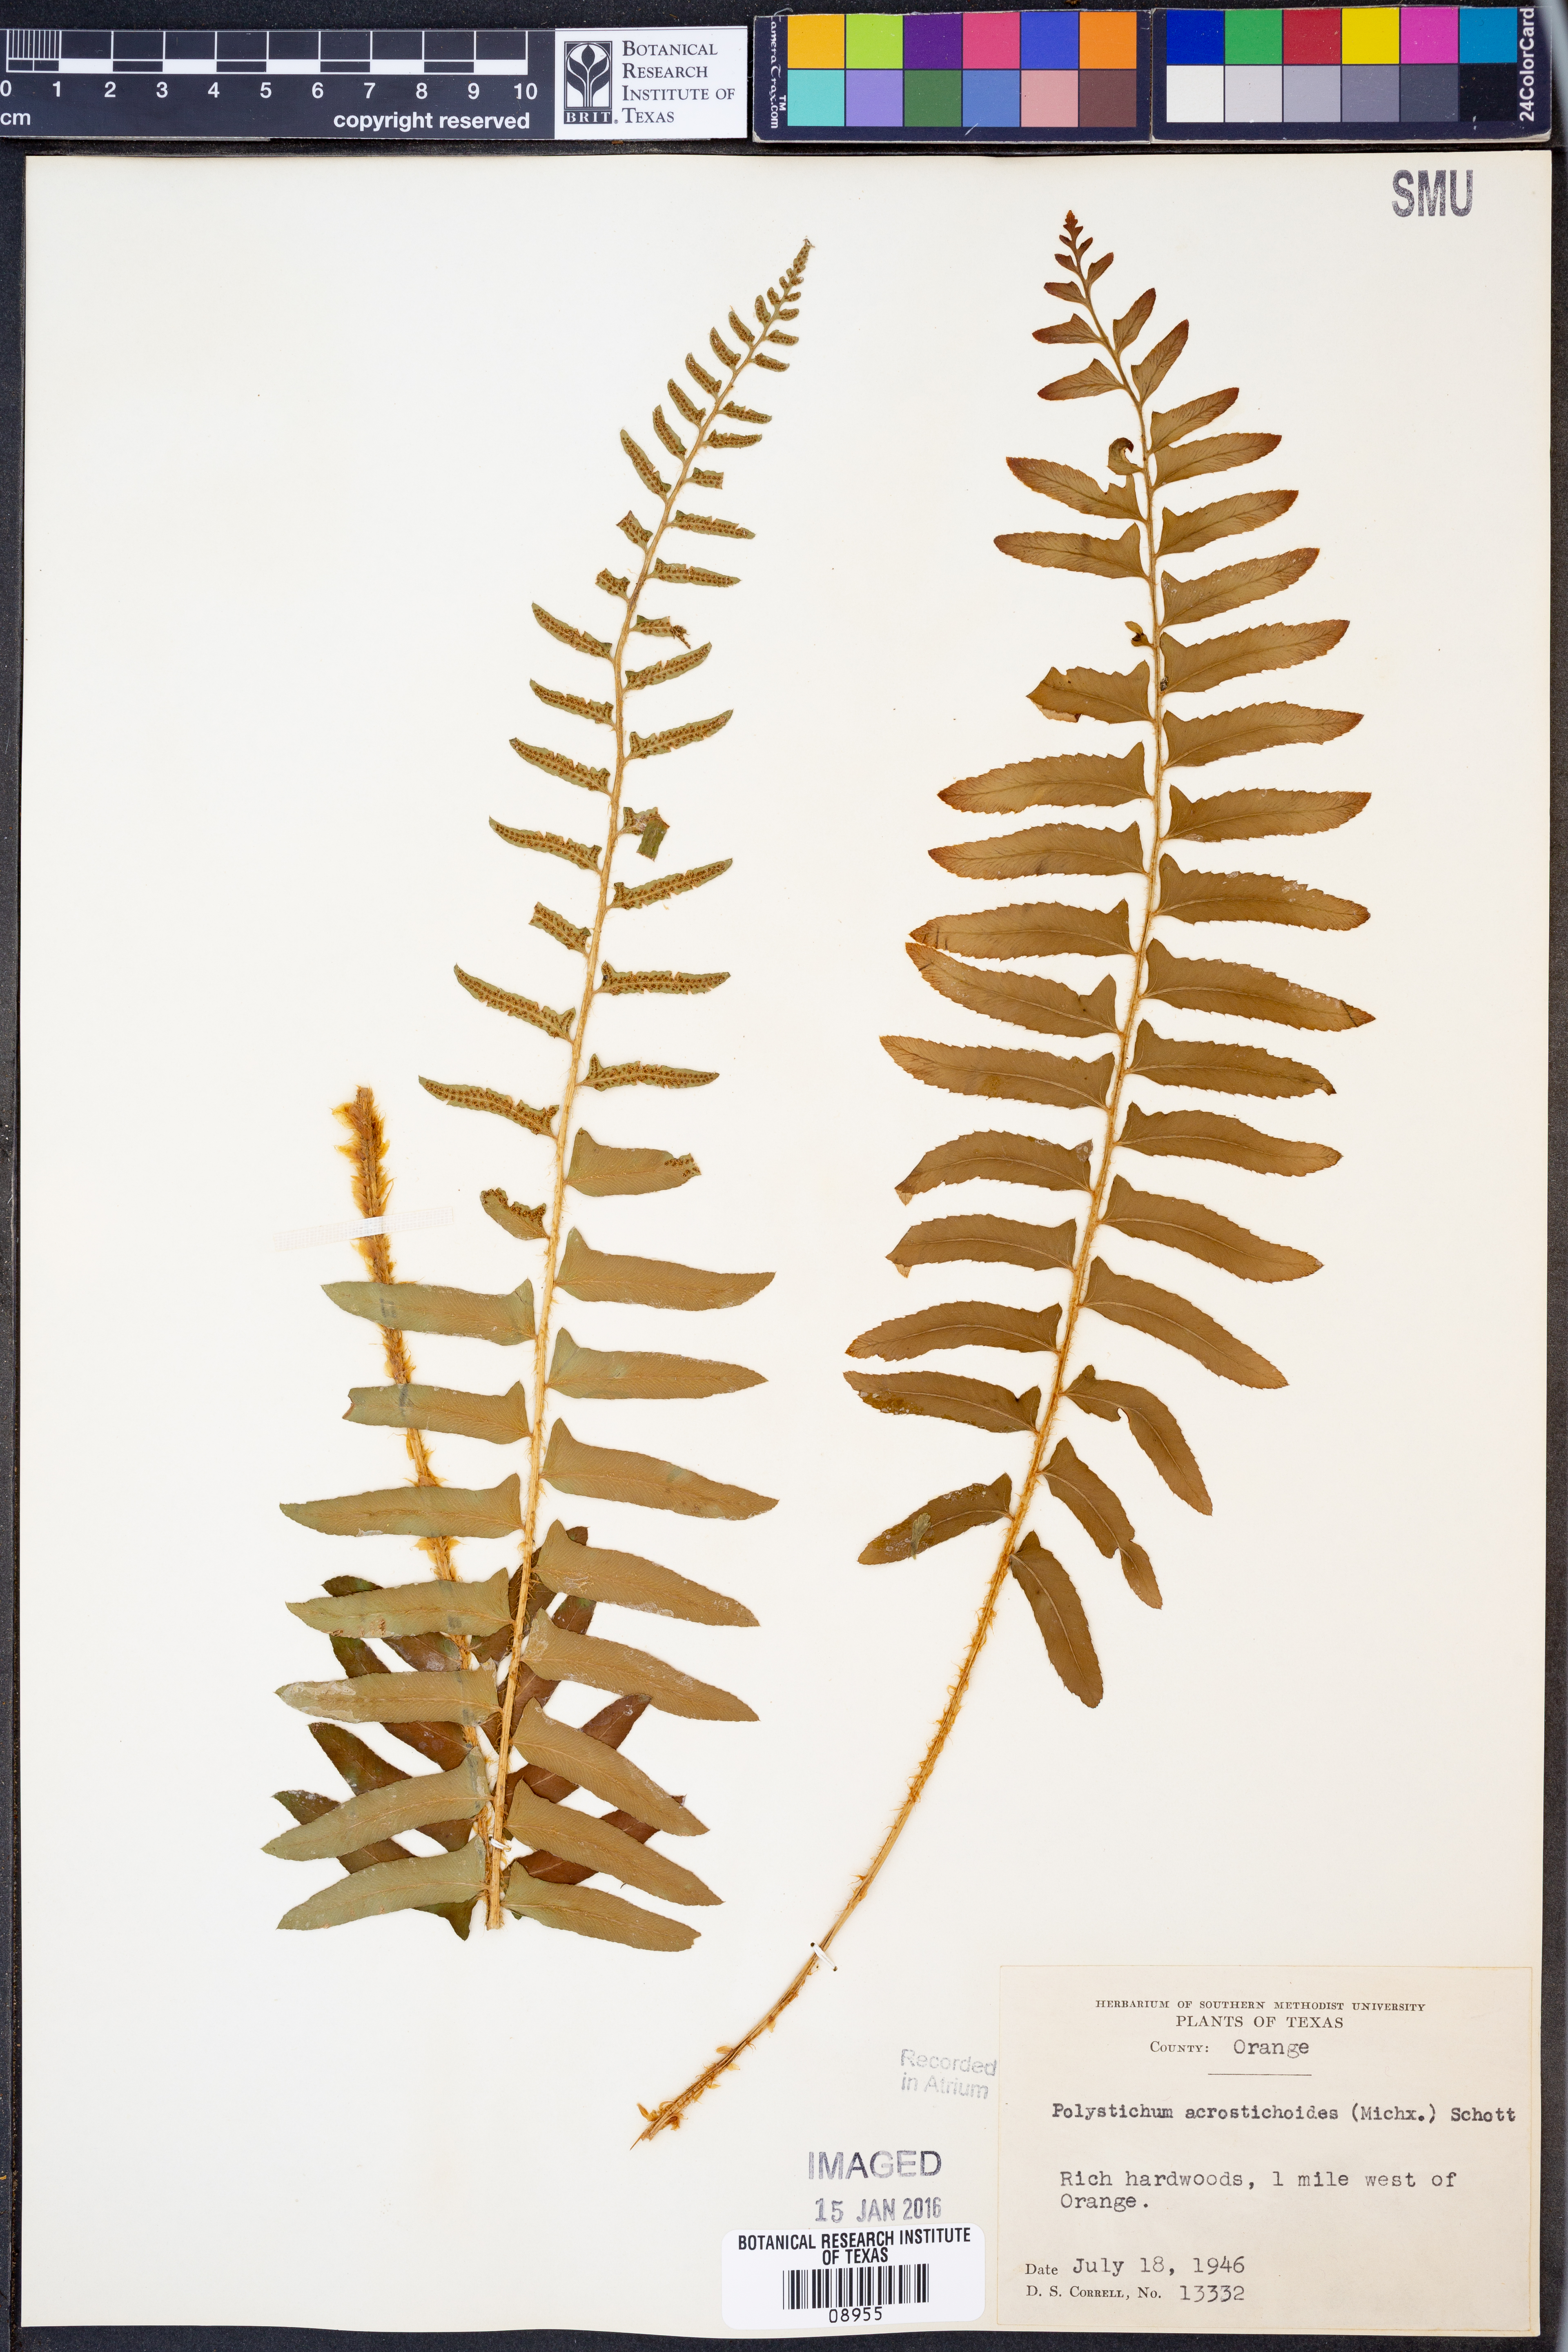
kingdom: Plantae
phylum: Tracheophyta
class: Polypodiopsida
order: Polypodiales
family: Dryopteridaceae
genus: Polystichum
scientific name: Polystichum acrostichoides
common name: Christmas fern
